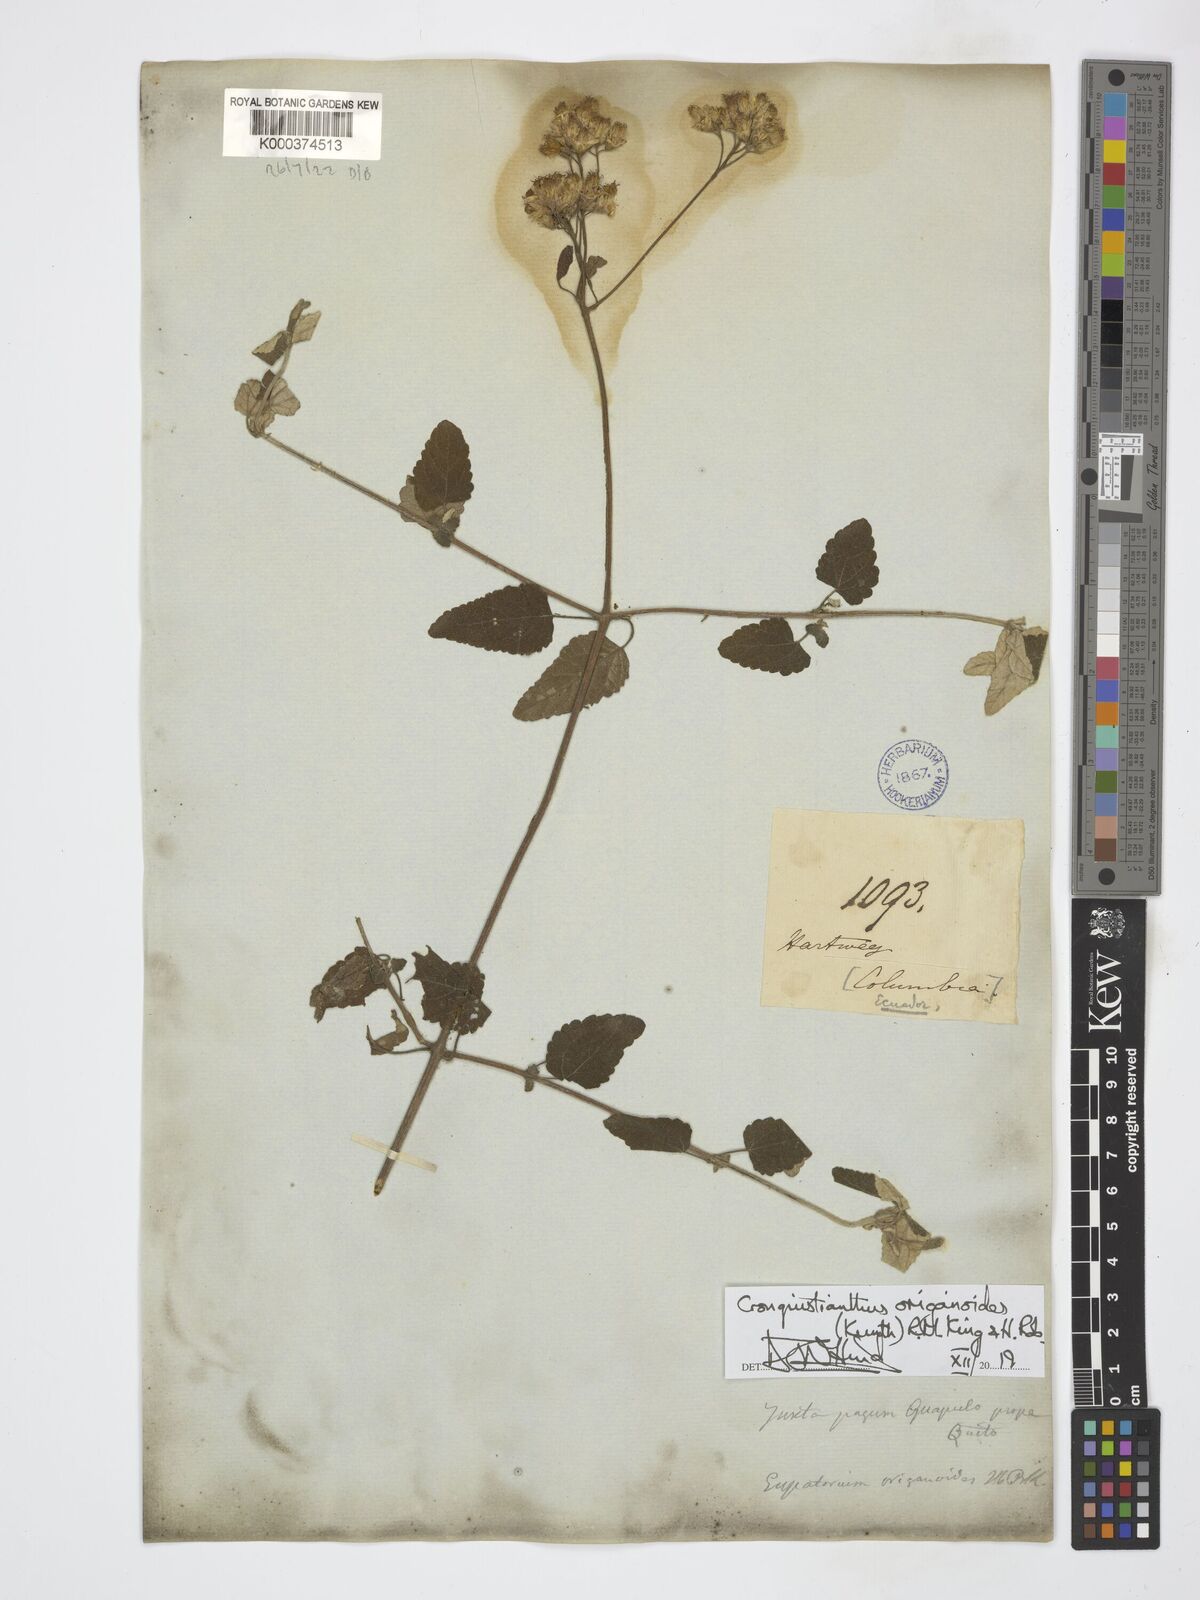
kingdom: Plantae
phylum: Tracheophyta
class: Magnoliopsida
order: Asterales
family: Asteraceae
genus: Cronquistianthus
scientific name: Cronquistianthus origanoides
